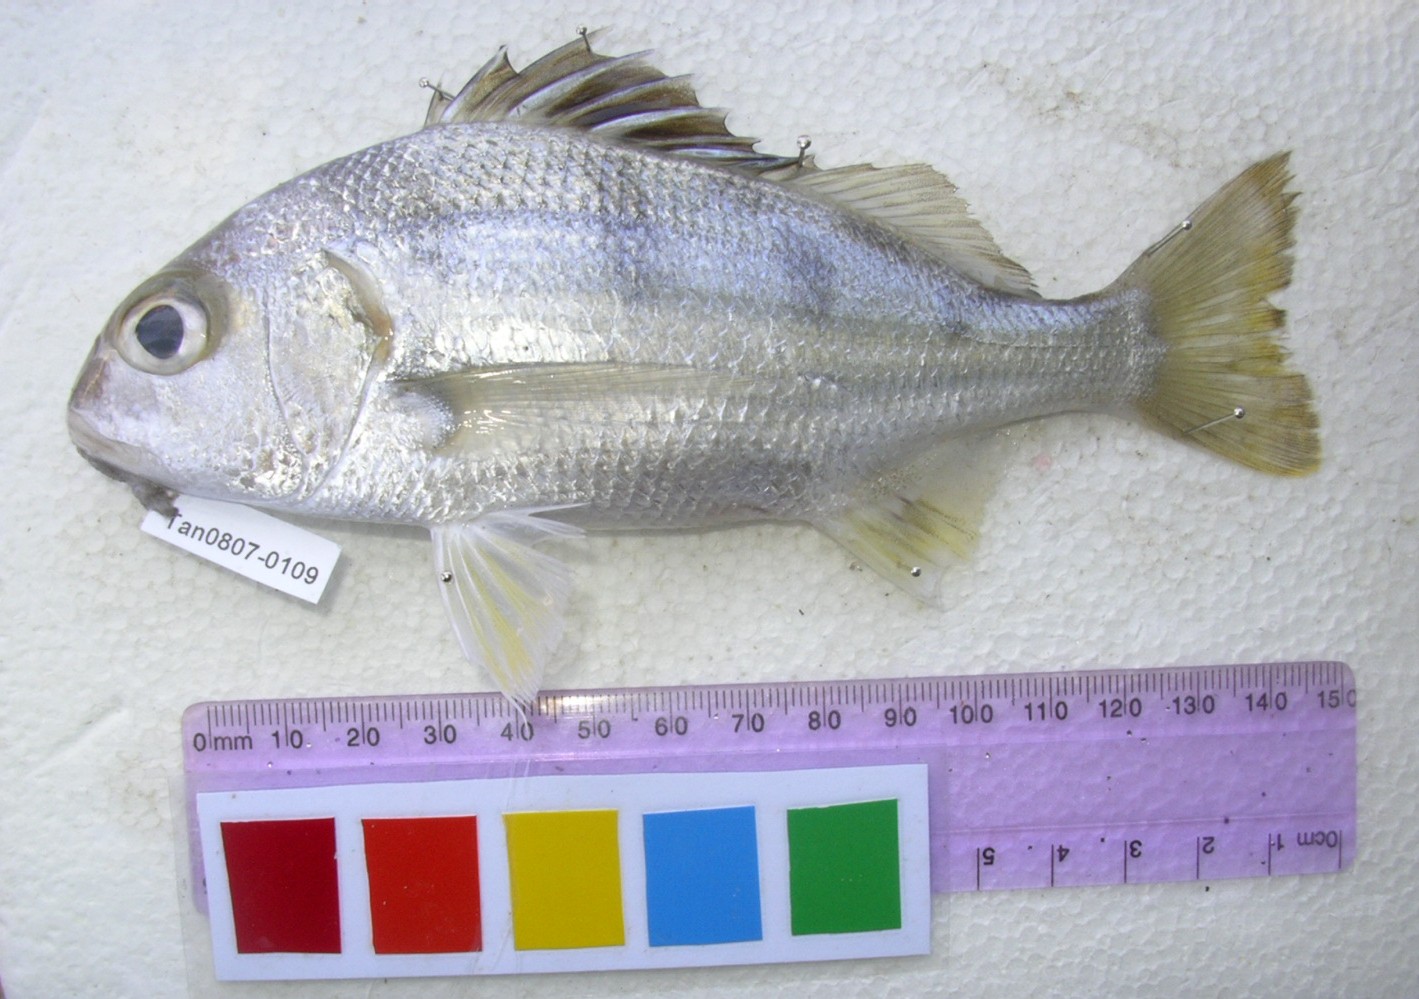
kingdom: Animalia
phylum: Chordata
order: Perciformes
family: Haemulidae
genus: Pomadasys
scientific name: Pomadasys maculatus
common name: Saddle grunt
